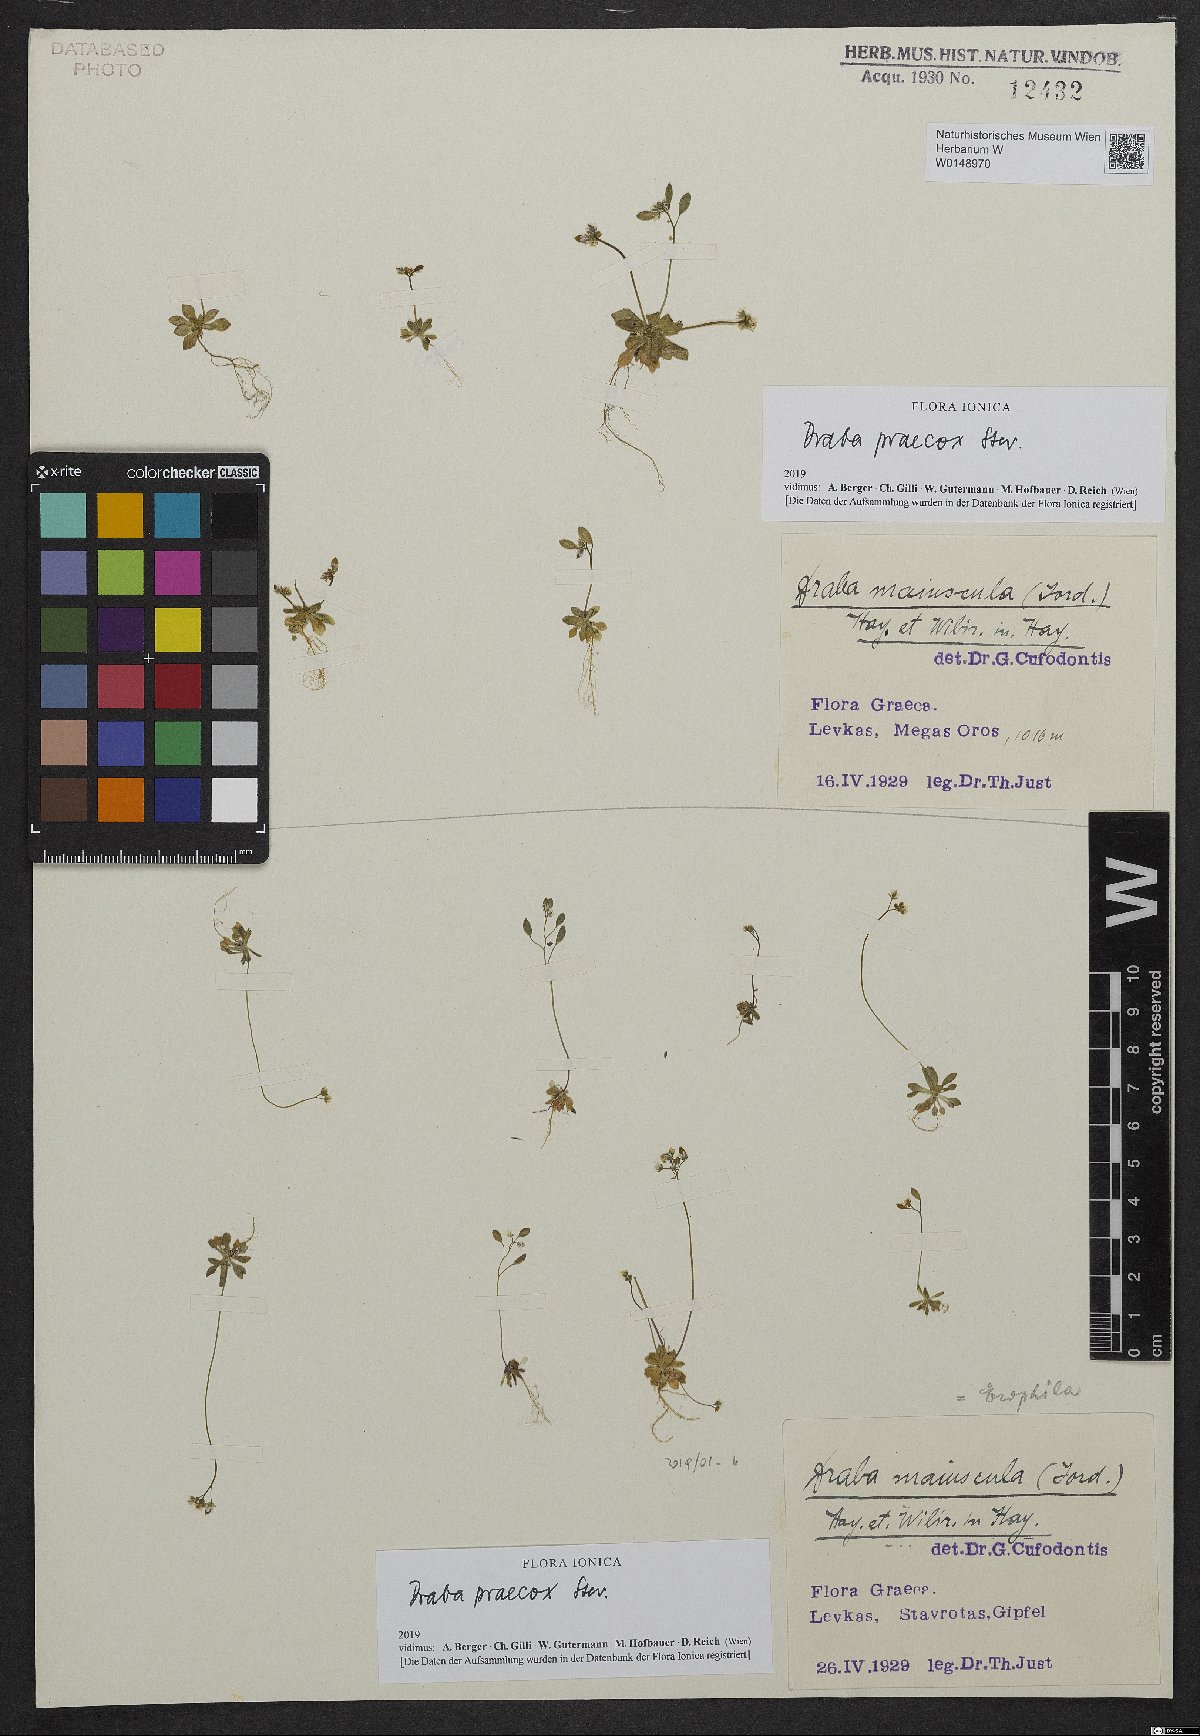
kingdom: Plantae
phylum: Tracheophyta
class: Magnoliopsida
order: Brassicales
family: Brassicaceae
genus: Draba
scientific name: Draba verna
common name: Spring draba
